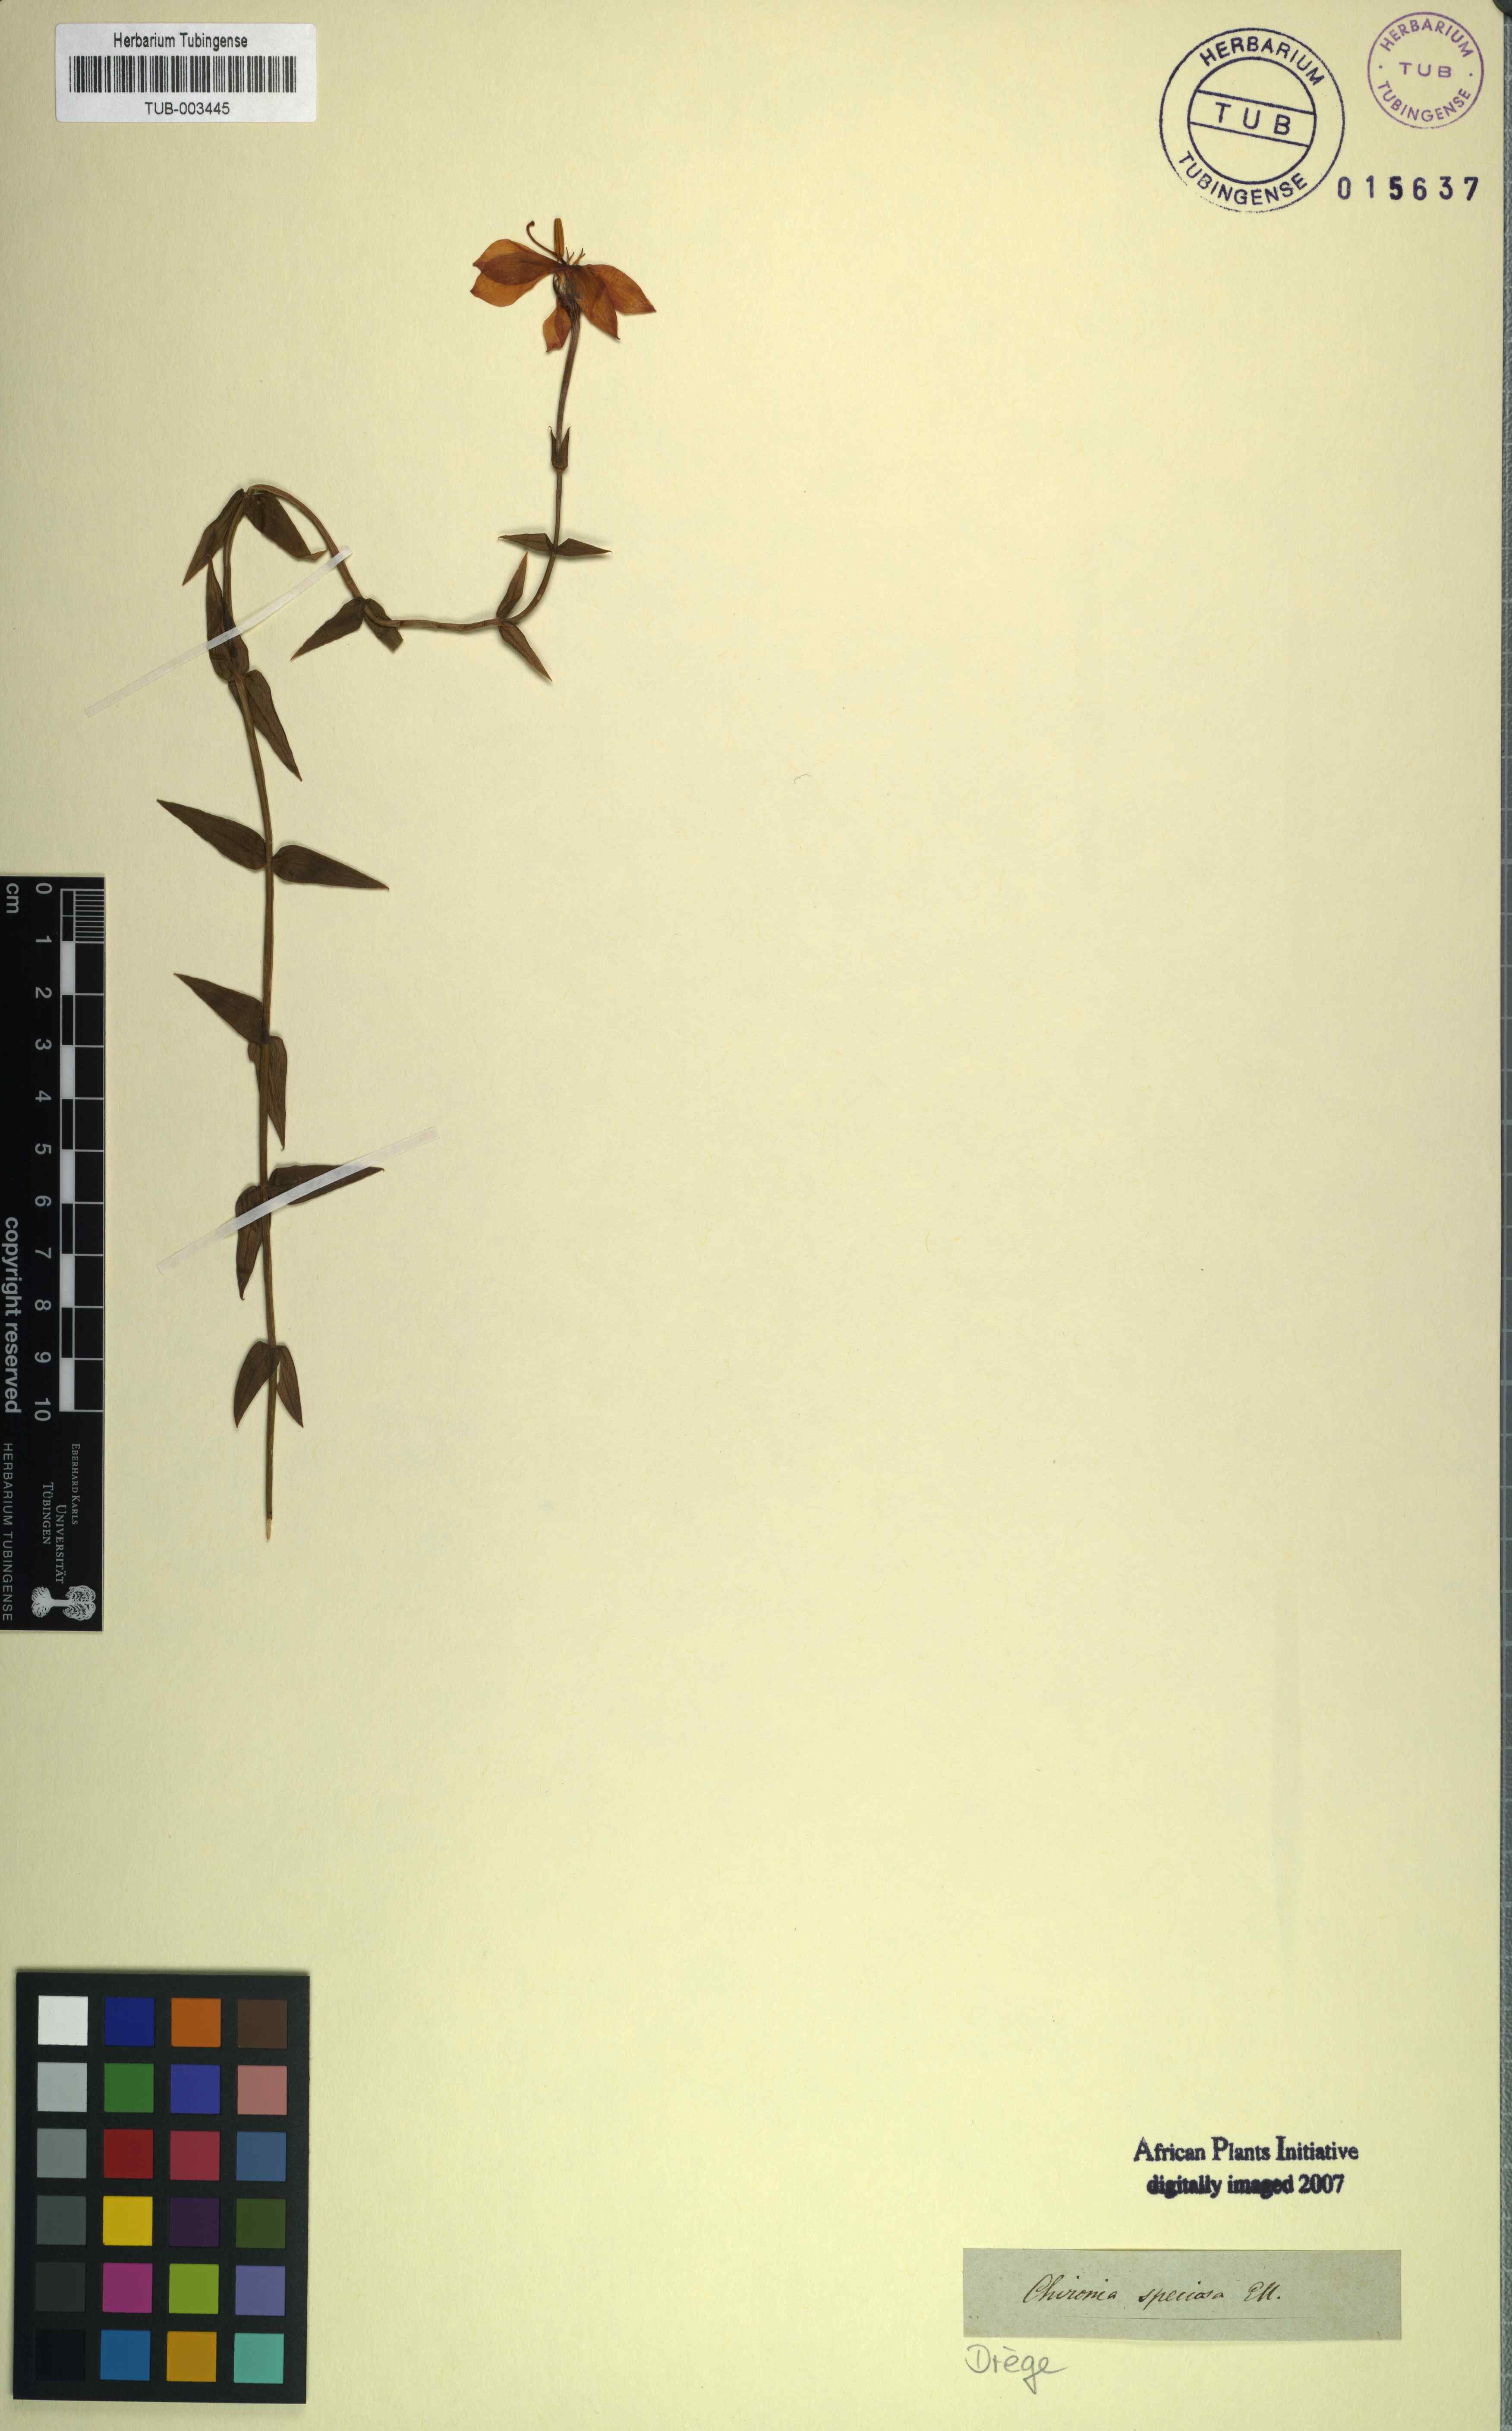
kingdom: Plantae
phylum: Tracheophyta
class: Magnoliopsida
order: Gentianales
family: Gentianaceae
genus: Chironia
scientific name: Chironia melampyrifolia
